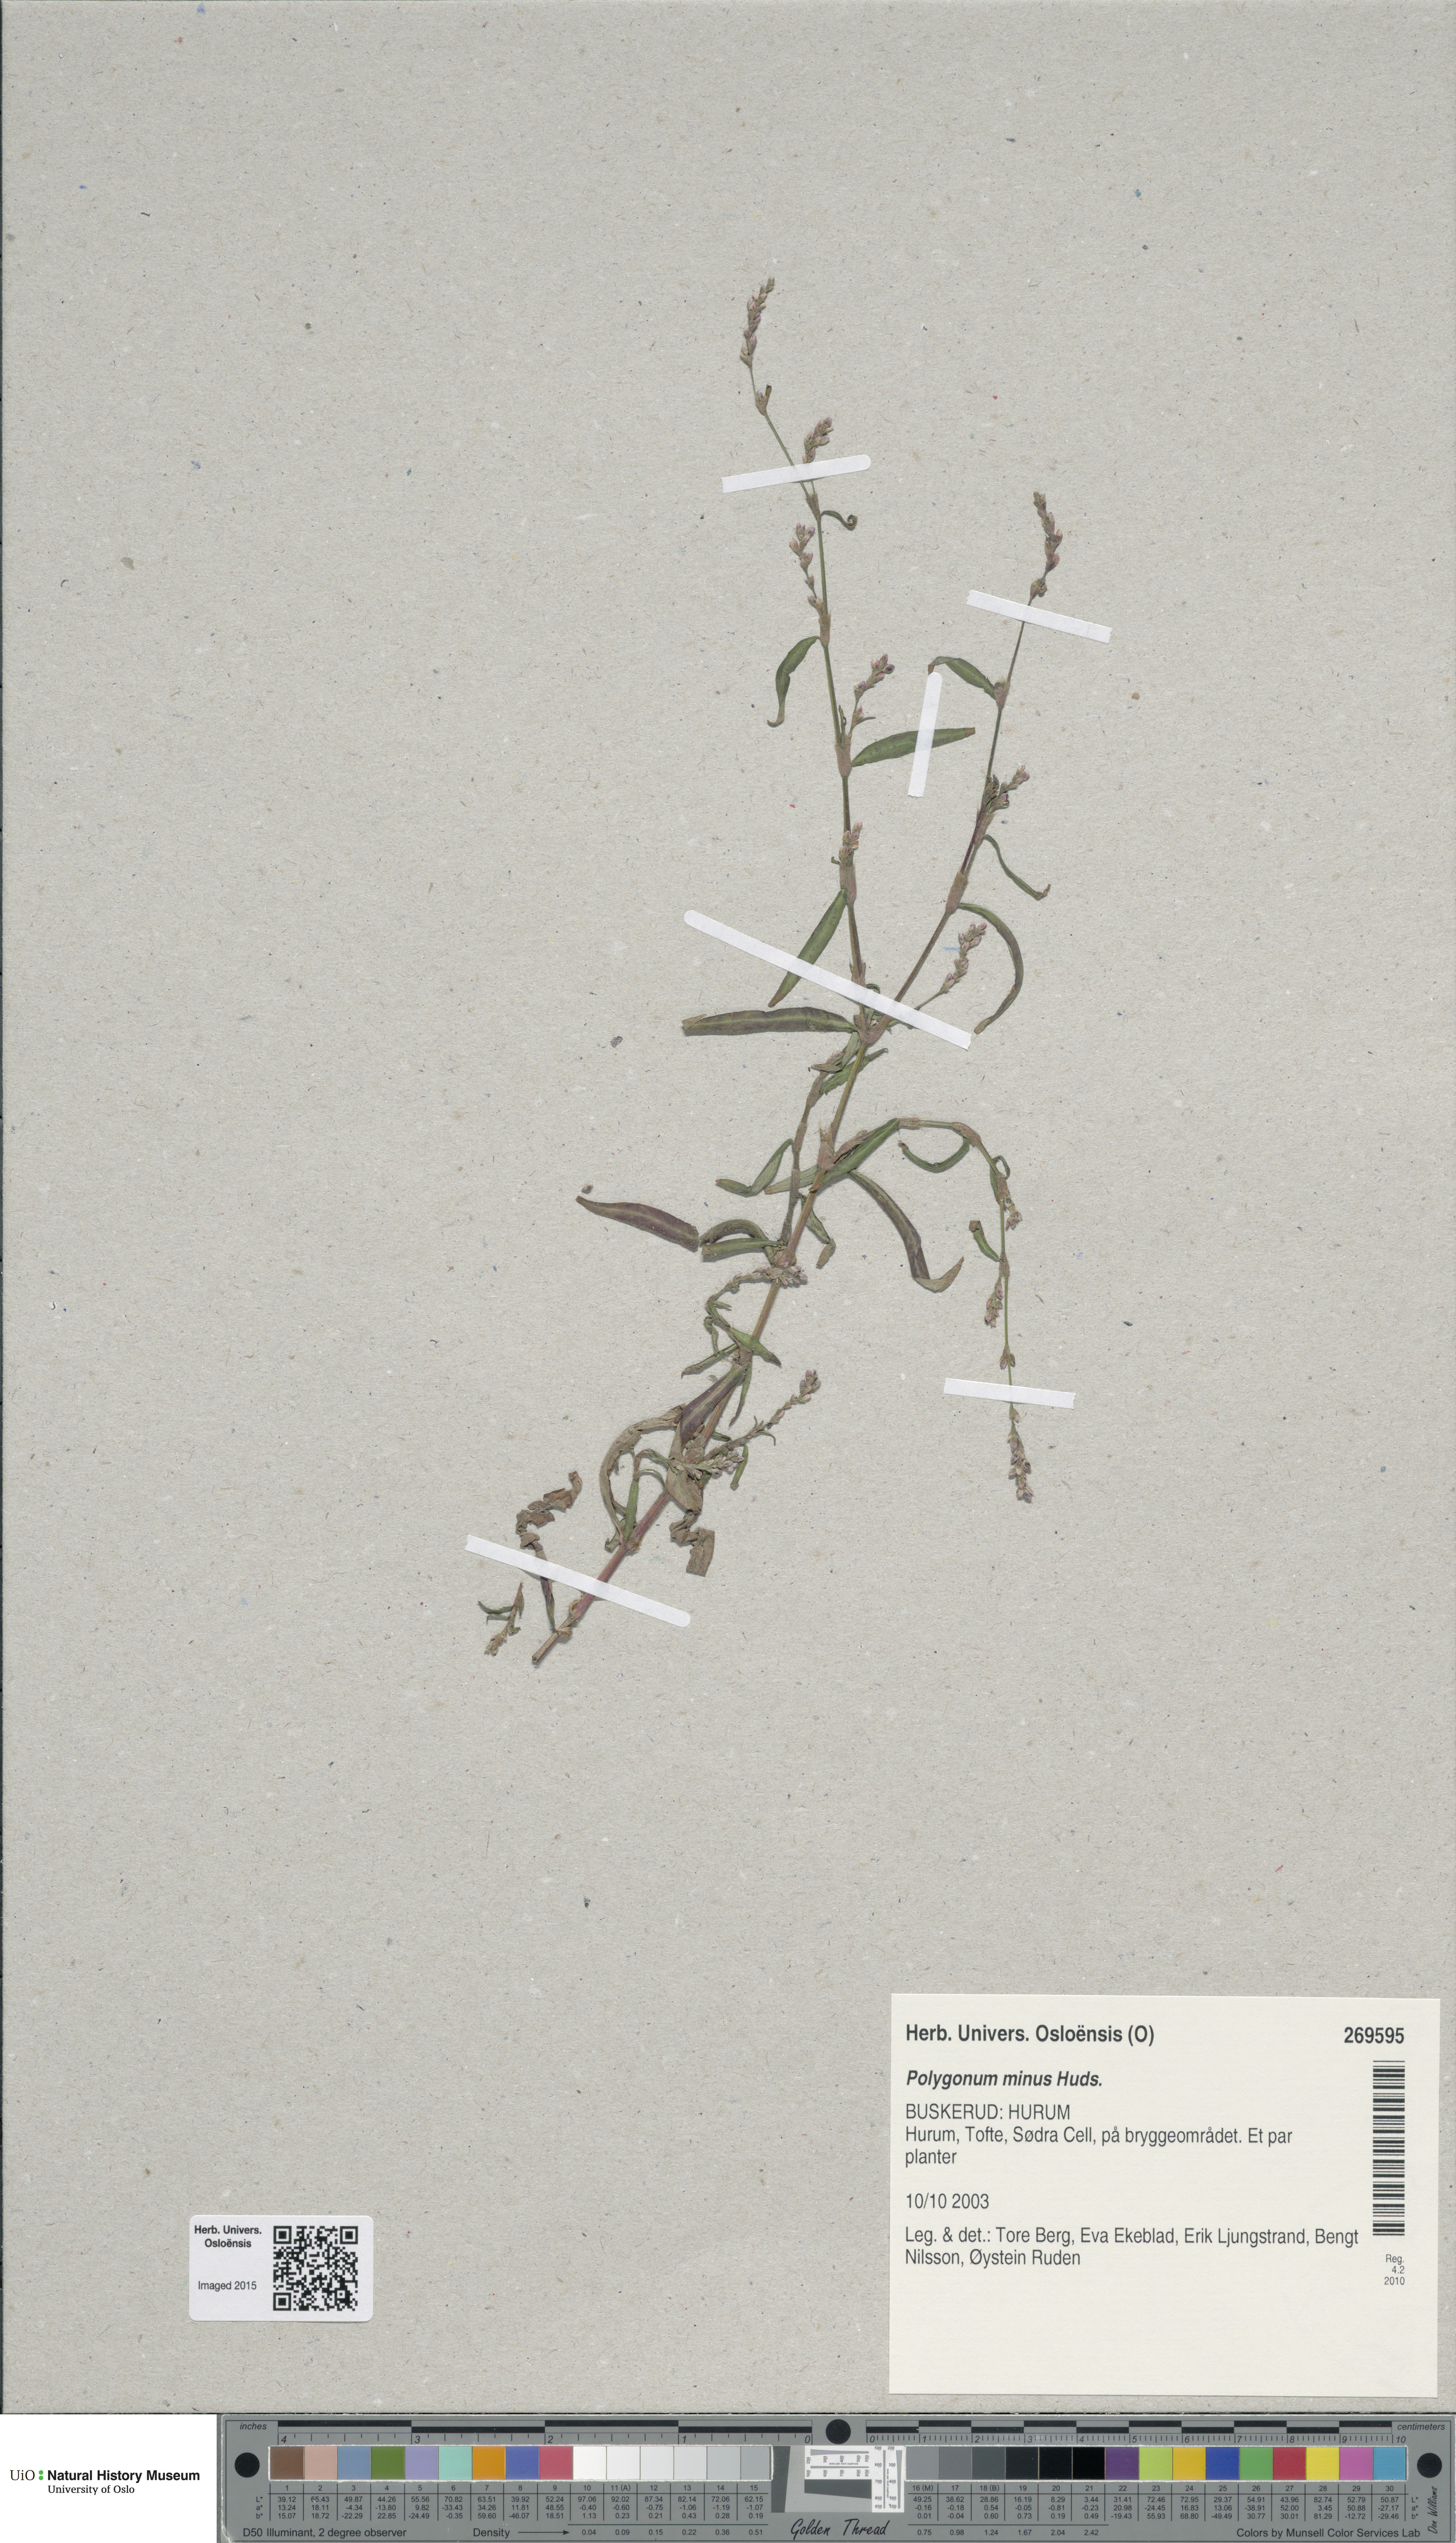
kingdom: Plantae
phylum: Tracheophyta
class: Magnoliopsida
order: Caryophyllales
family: Polygonaceae
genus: Persicaria
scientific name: Persicaria minor
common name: Small water-pepper
